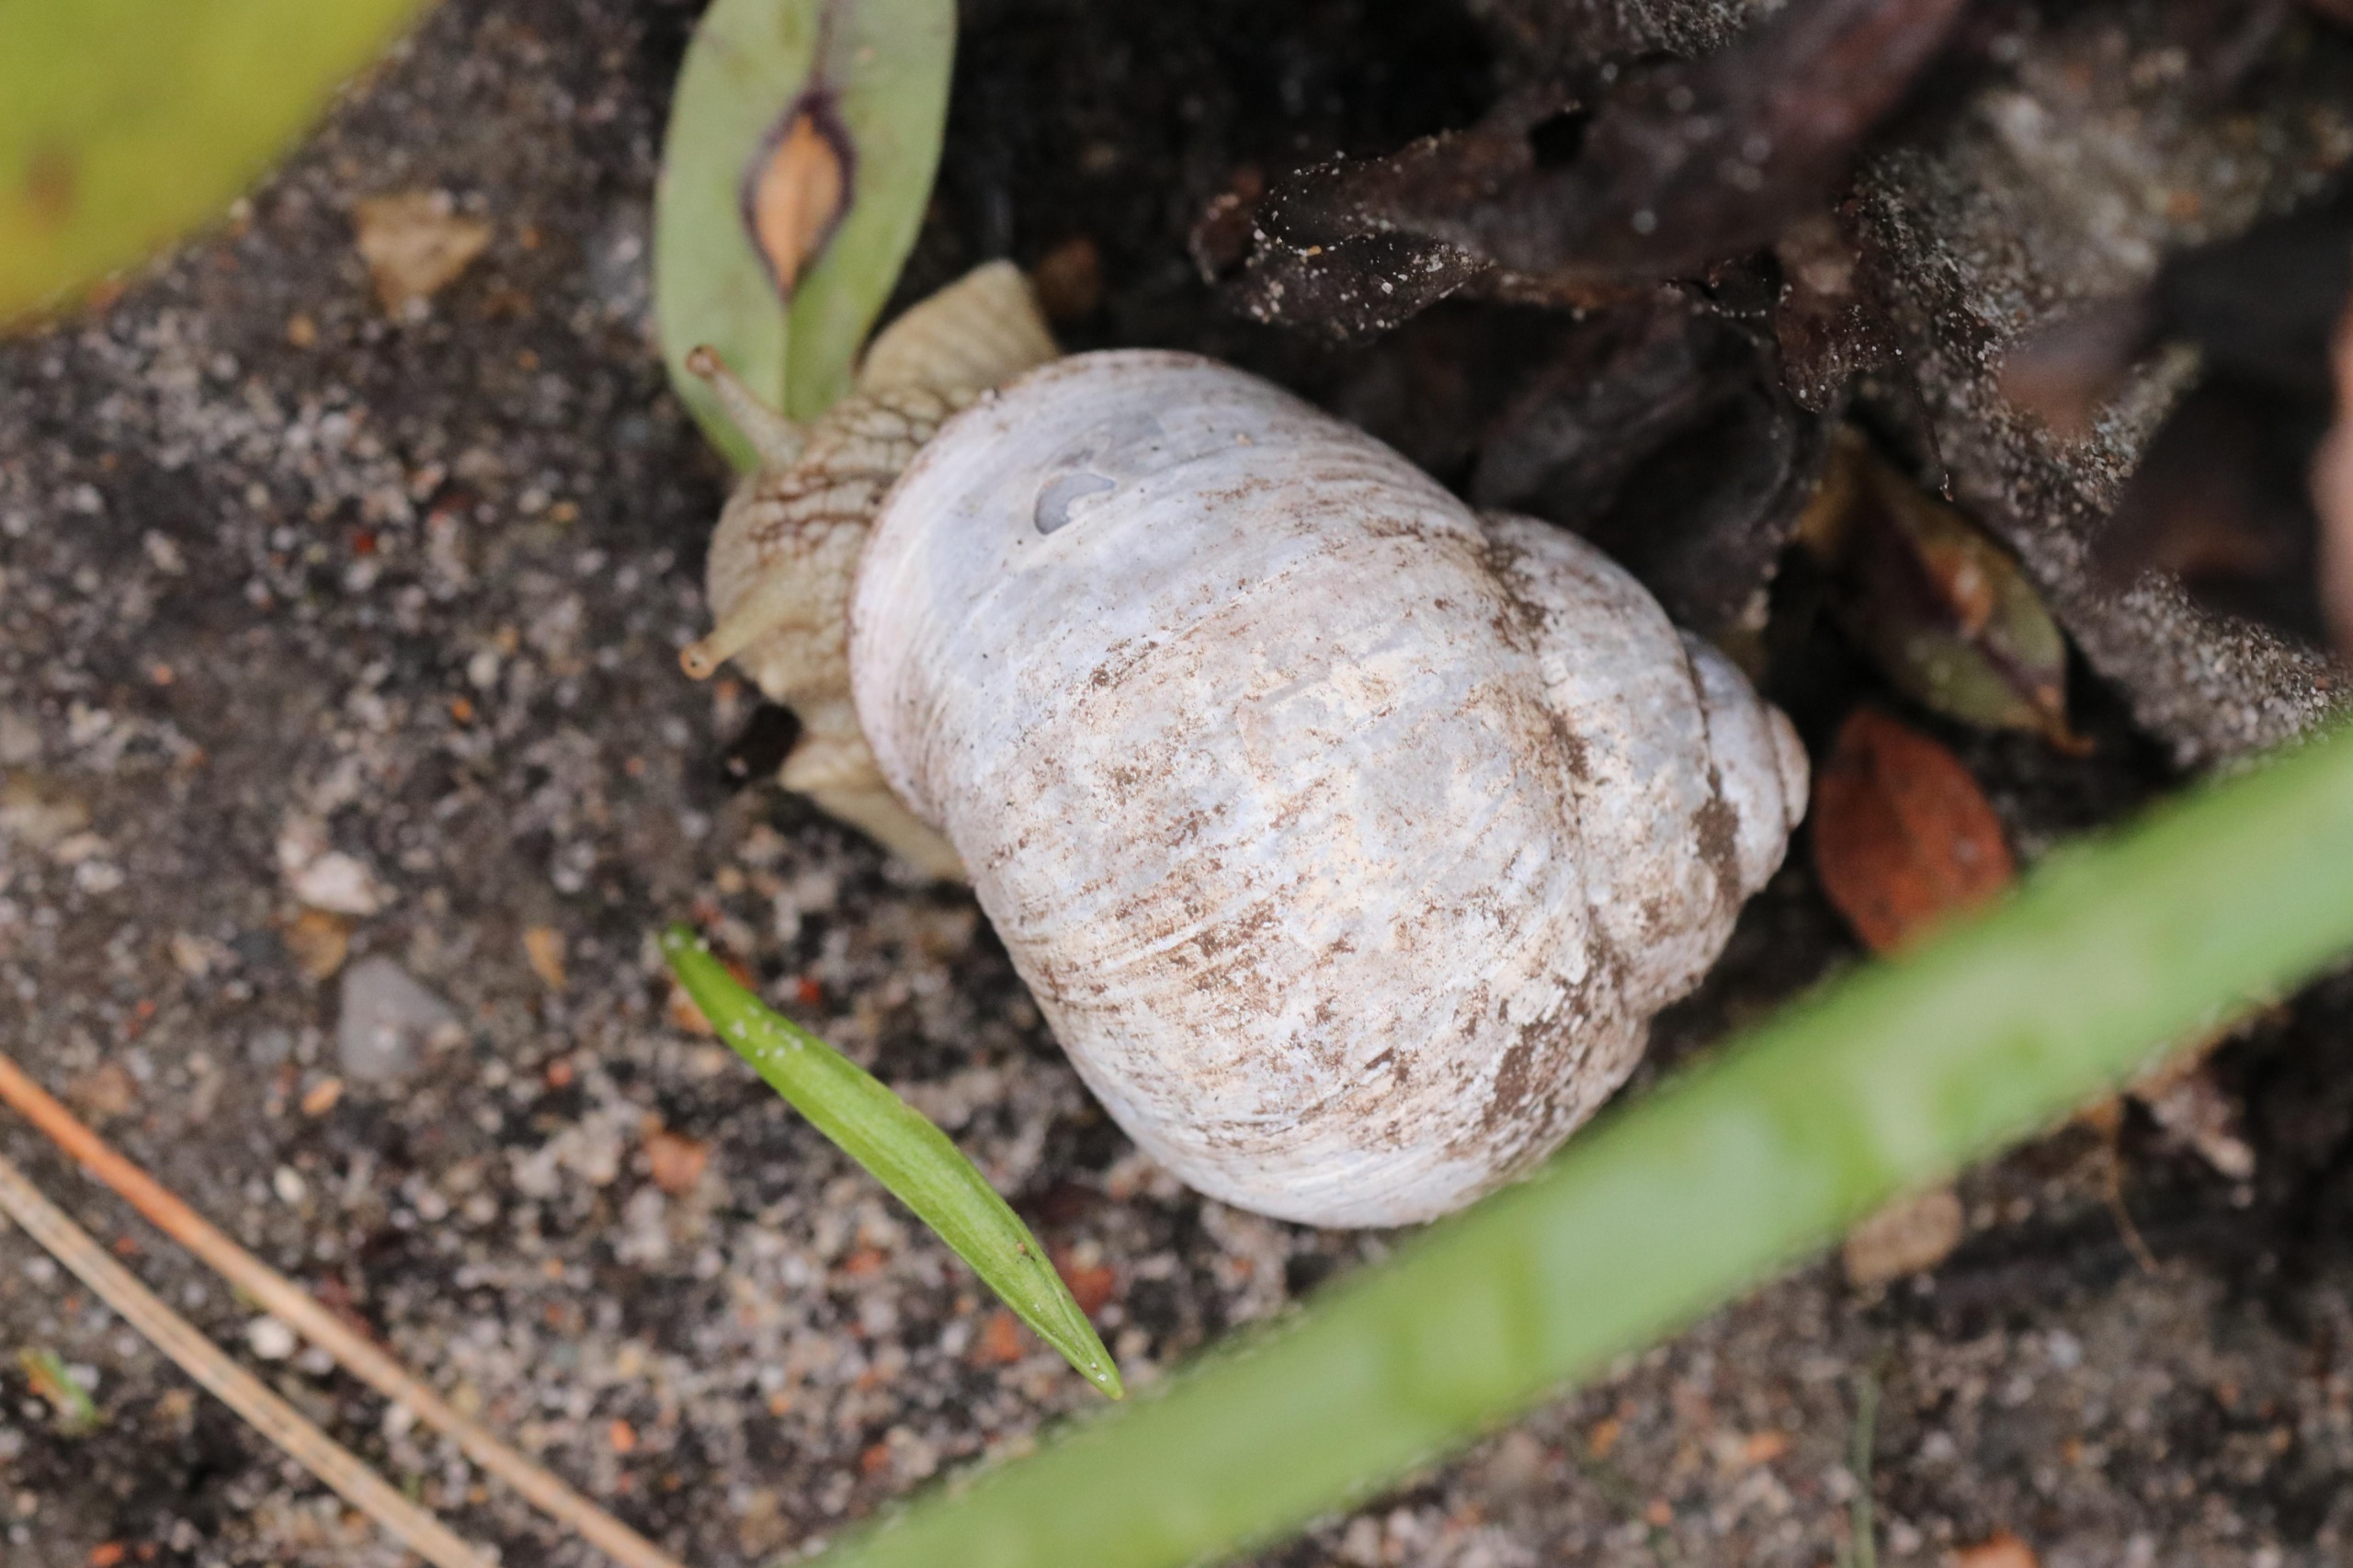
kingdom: Animalia
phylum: Mollusca
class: Gastropoda
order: Stylommatophora
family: Helicidae
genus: Helix
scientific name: Helix pomatia
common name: Vinbjergsnegl
